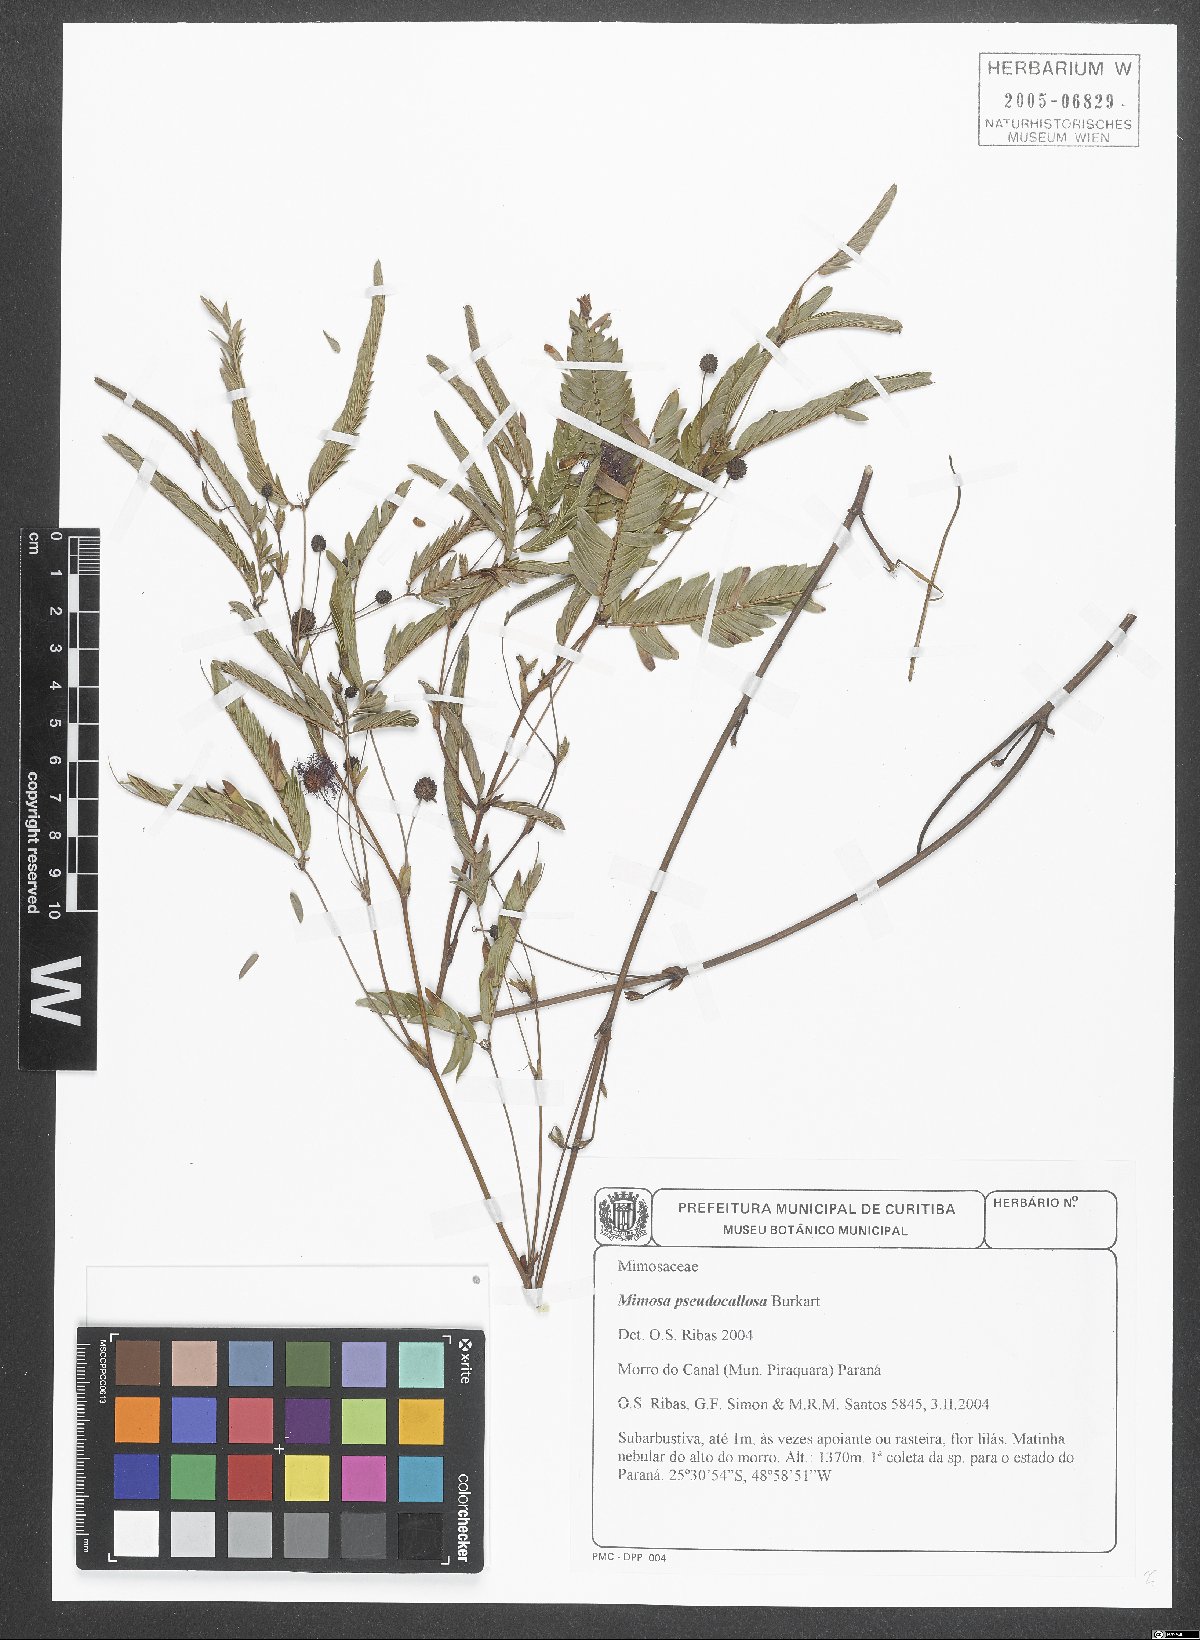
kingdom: Plantae
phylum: Tracheophyta
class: Magnoliopsida
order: Fabales
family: Fabaceae
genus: Mimosa
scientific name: Mimosa pseudocallosa
